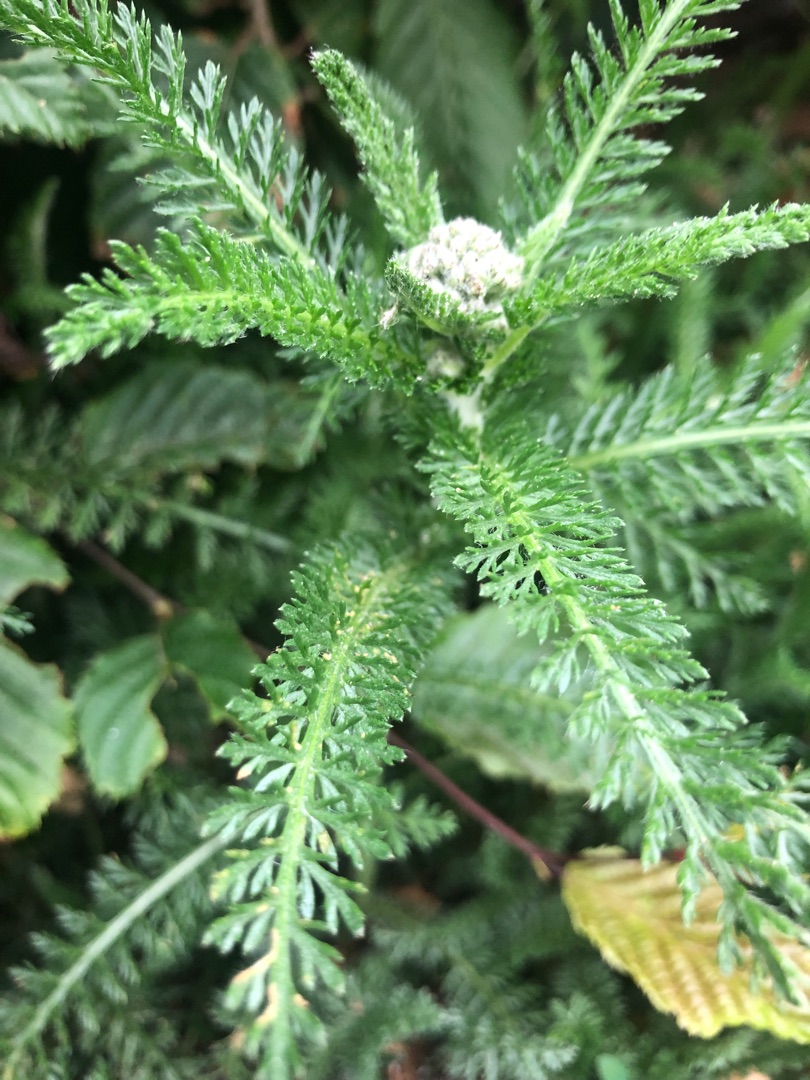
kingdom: Plantae
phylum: Tracheophyta
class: Magnoliopsida
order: Asterales
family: Asteraceae
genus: Achillea
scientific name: Achillea millefolium
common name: Almindelig røllike
